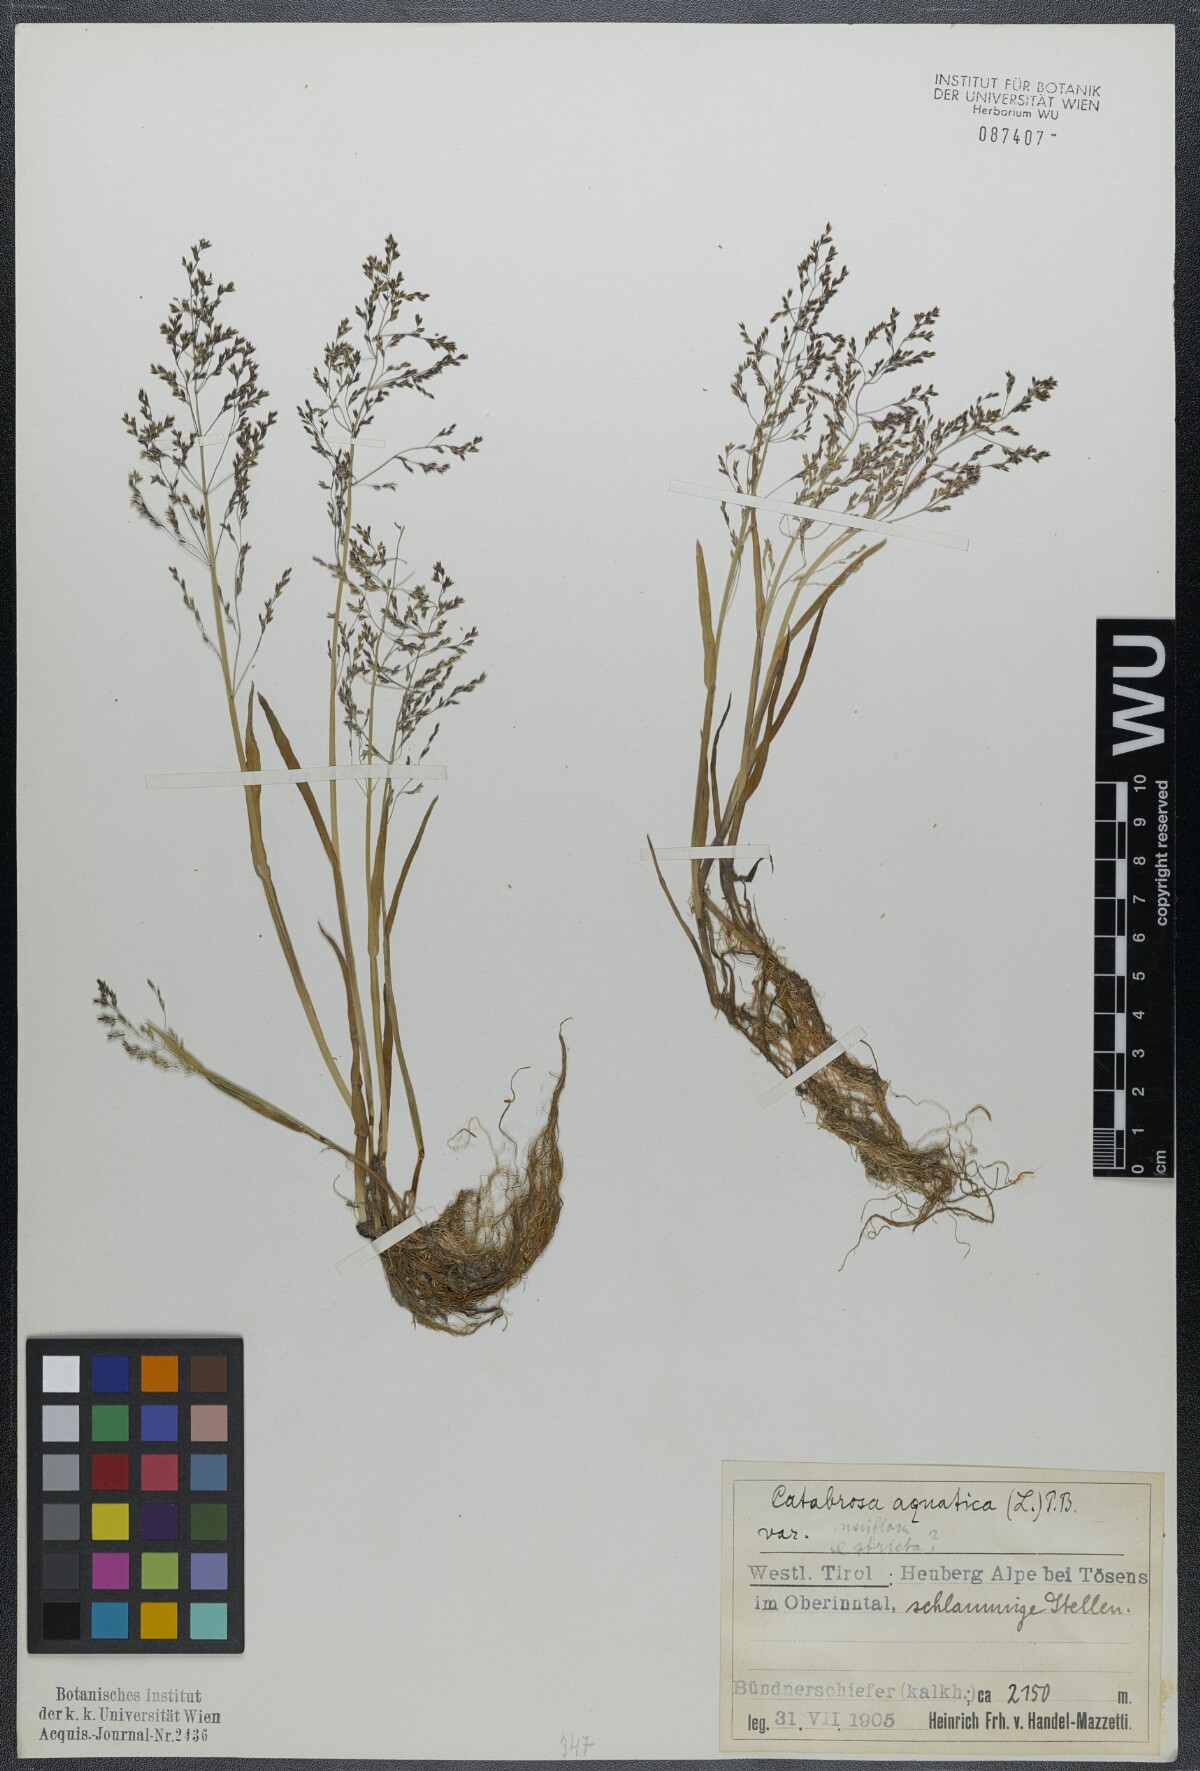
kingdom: Plantae
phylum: Tracheophyta
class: Liliopsida
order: Poales
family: Poaceae
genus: Catabrosa
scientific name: Catabrosa aquatica
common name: Whorl-grass
